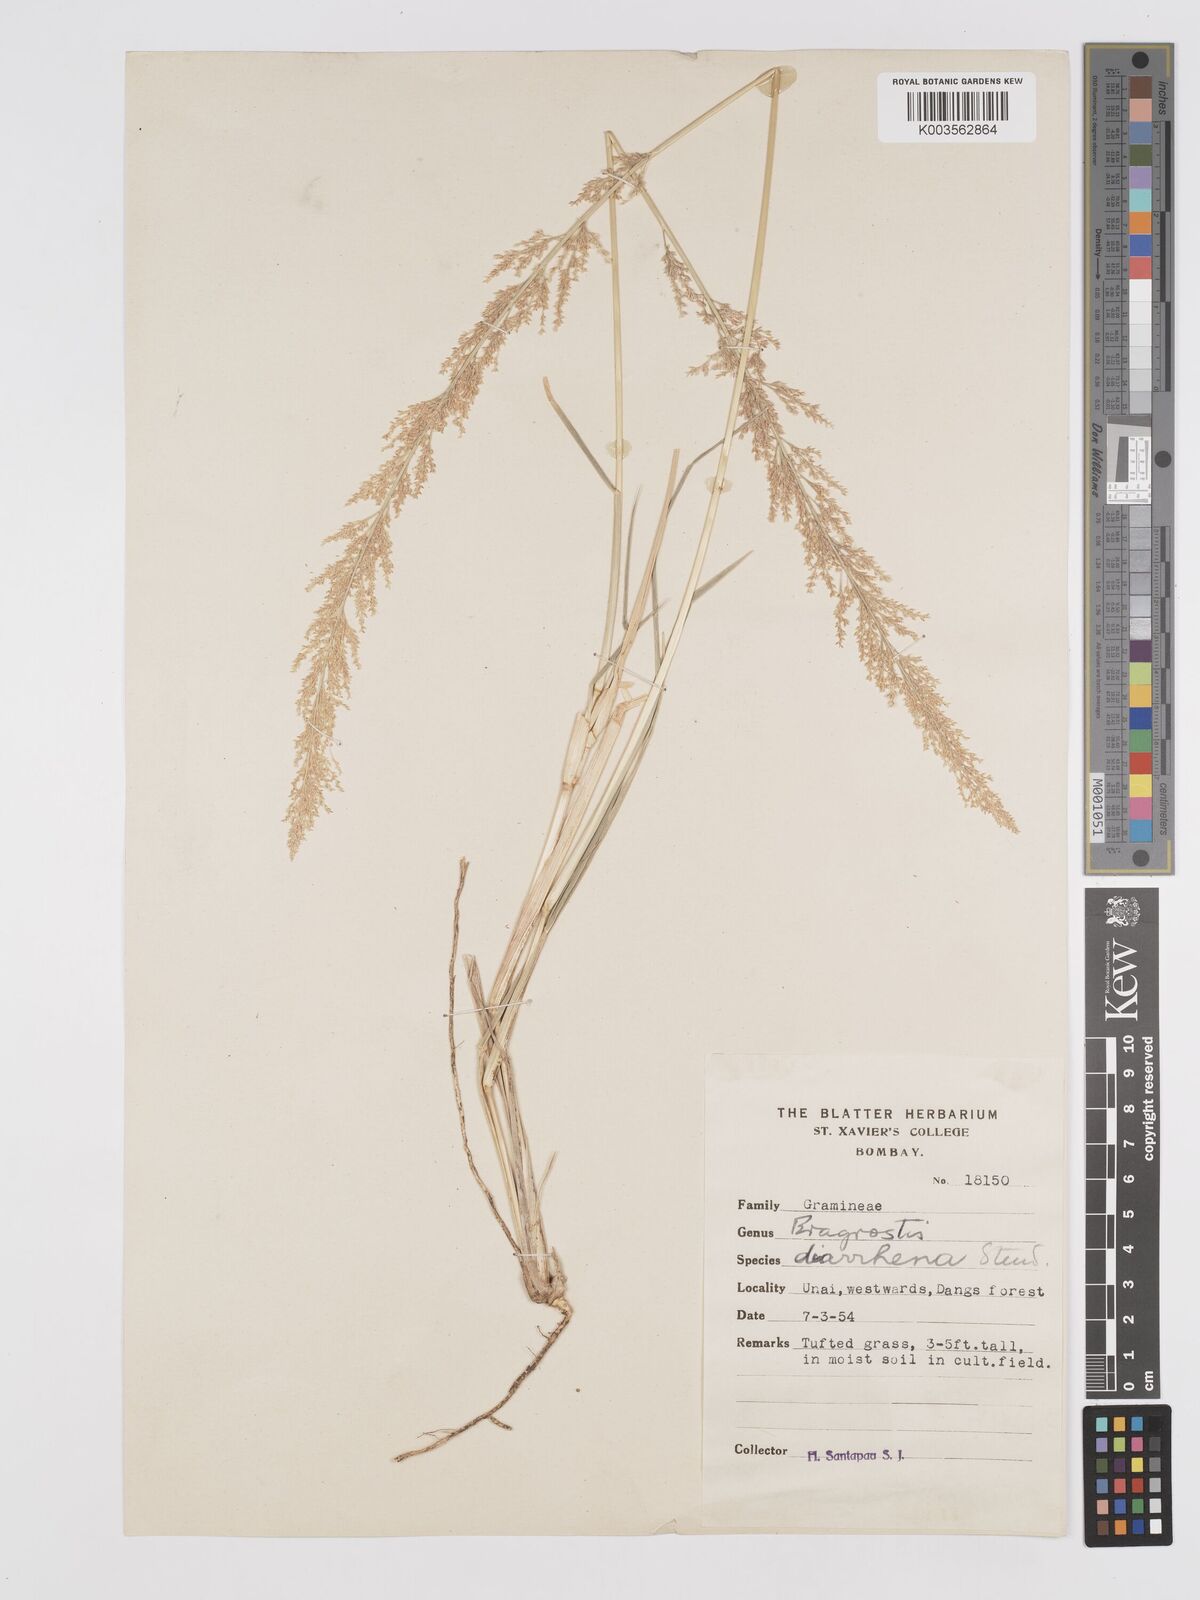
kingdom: Plantae
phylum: Tracheophyta
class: Liliopsida
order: Poales
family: Poaceae
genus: Eragrostis
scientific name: Eragrostis japonica
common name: Pond lovegrass
